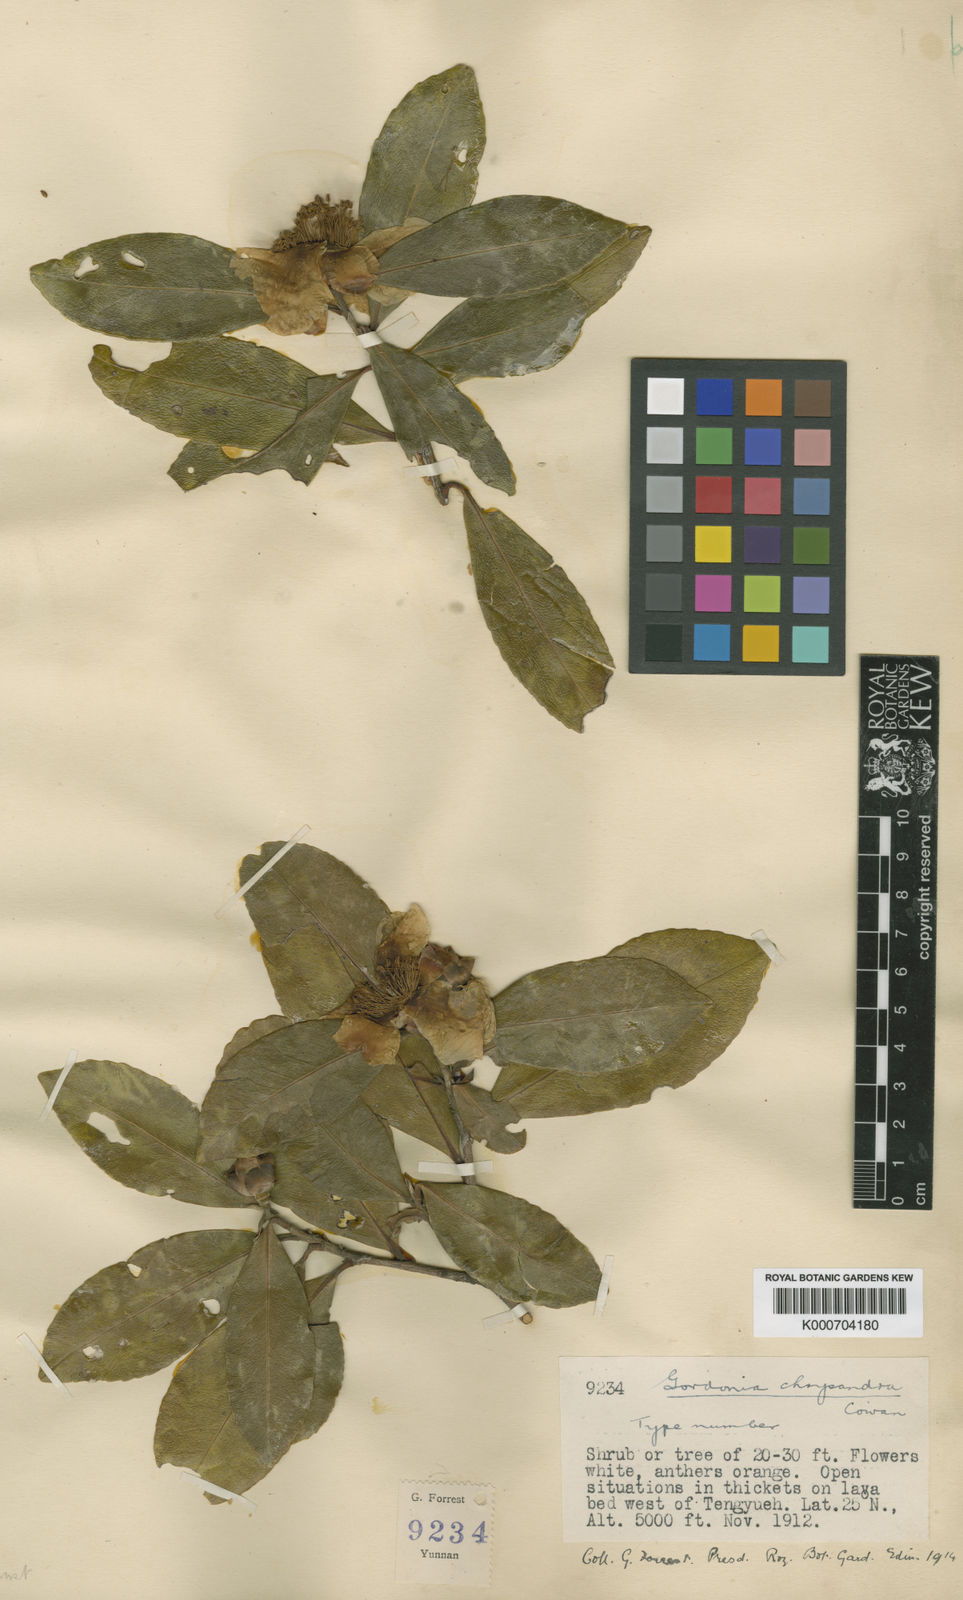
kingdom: Plantae
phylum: Tracheophyta
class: Magnoliopsida
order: Ericales
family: Theaceae
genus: Polyspora
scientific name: Polyspora chrysandra
